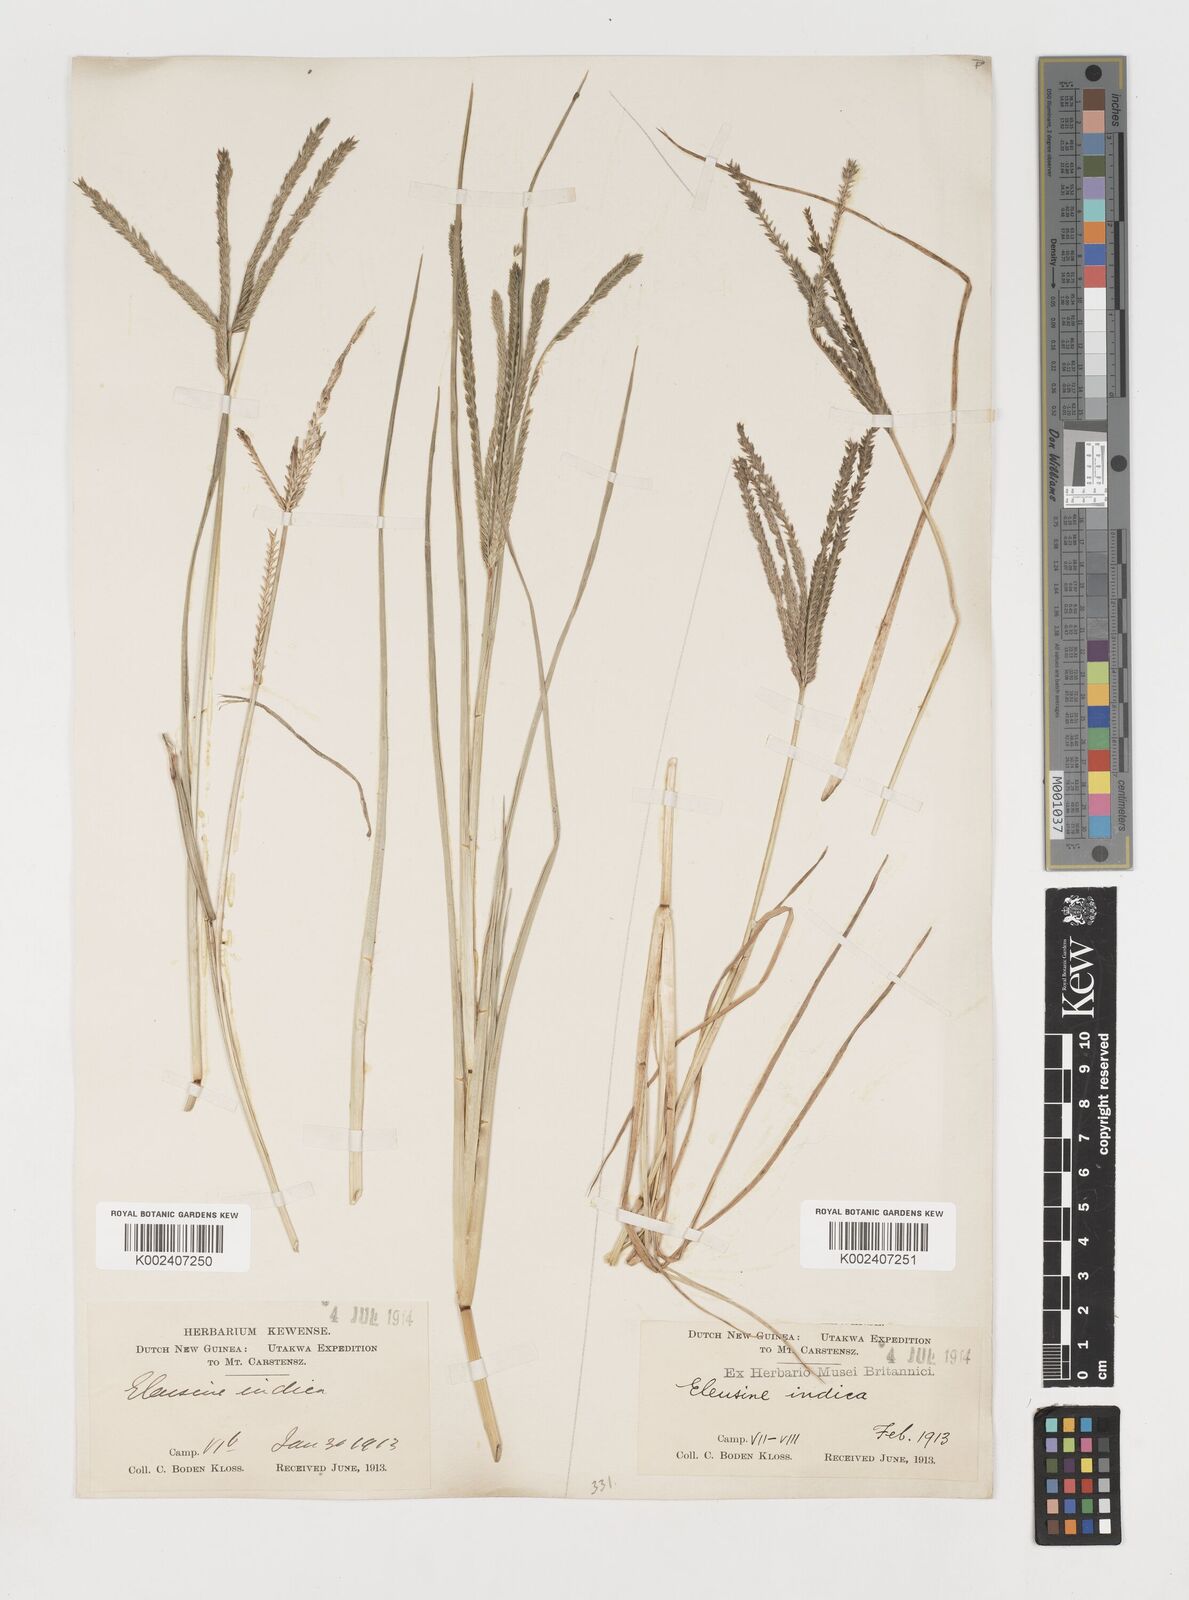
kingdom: Plantae
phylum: Tracheophyta
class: Liliopsida
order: Poales
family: Poaceae
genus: Eleusine
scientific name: Eleusine indica
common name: Yard-grass
